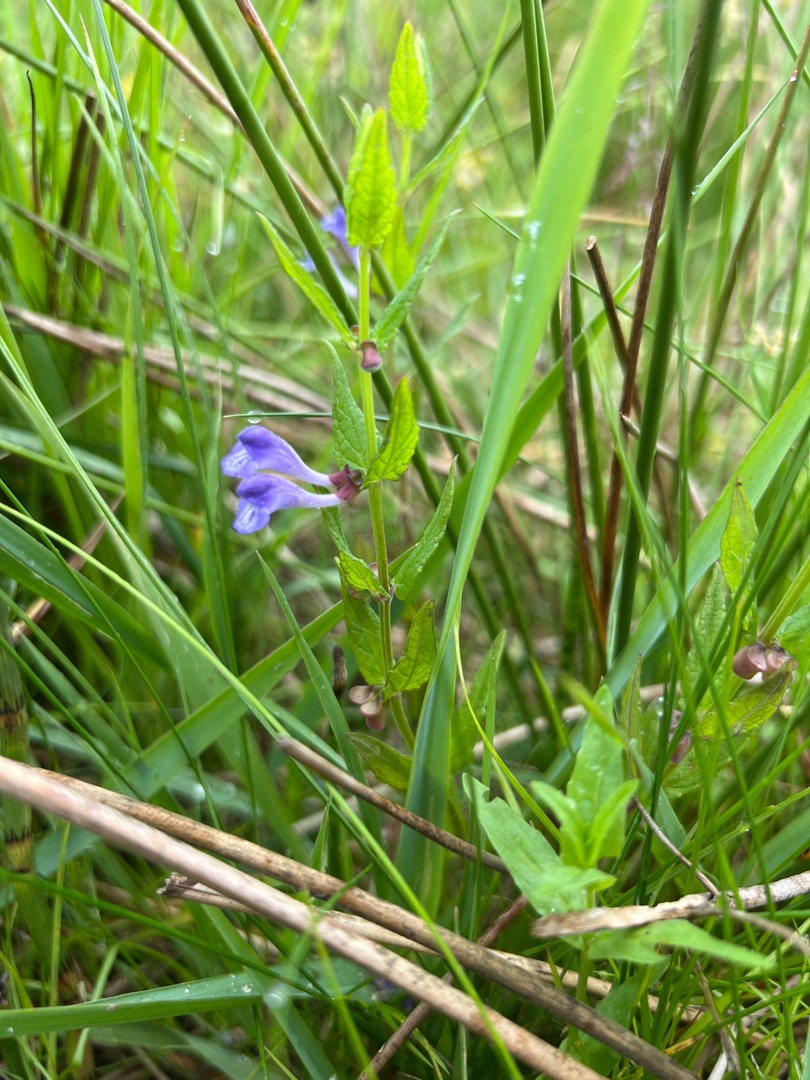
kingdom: Plantae
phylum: Tracheophyta
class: Magnoliopsida
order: Lamiales
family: Lamiaceae
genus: Scutellaria
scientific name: Scutellaria galericulata
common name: Almindelig skjolddrager
